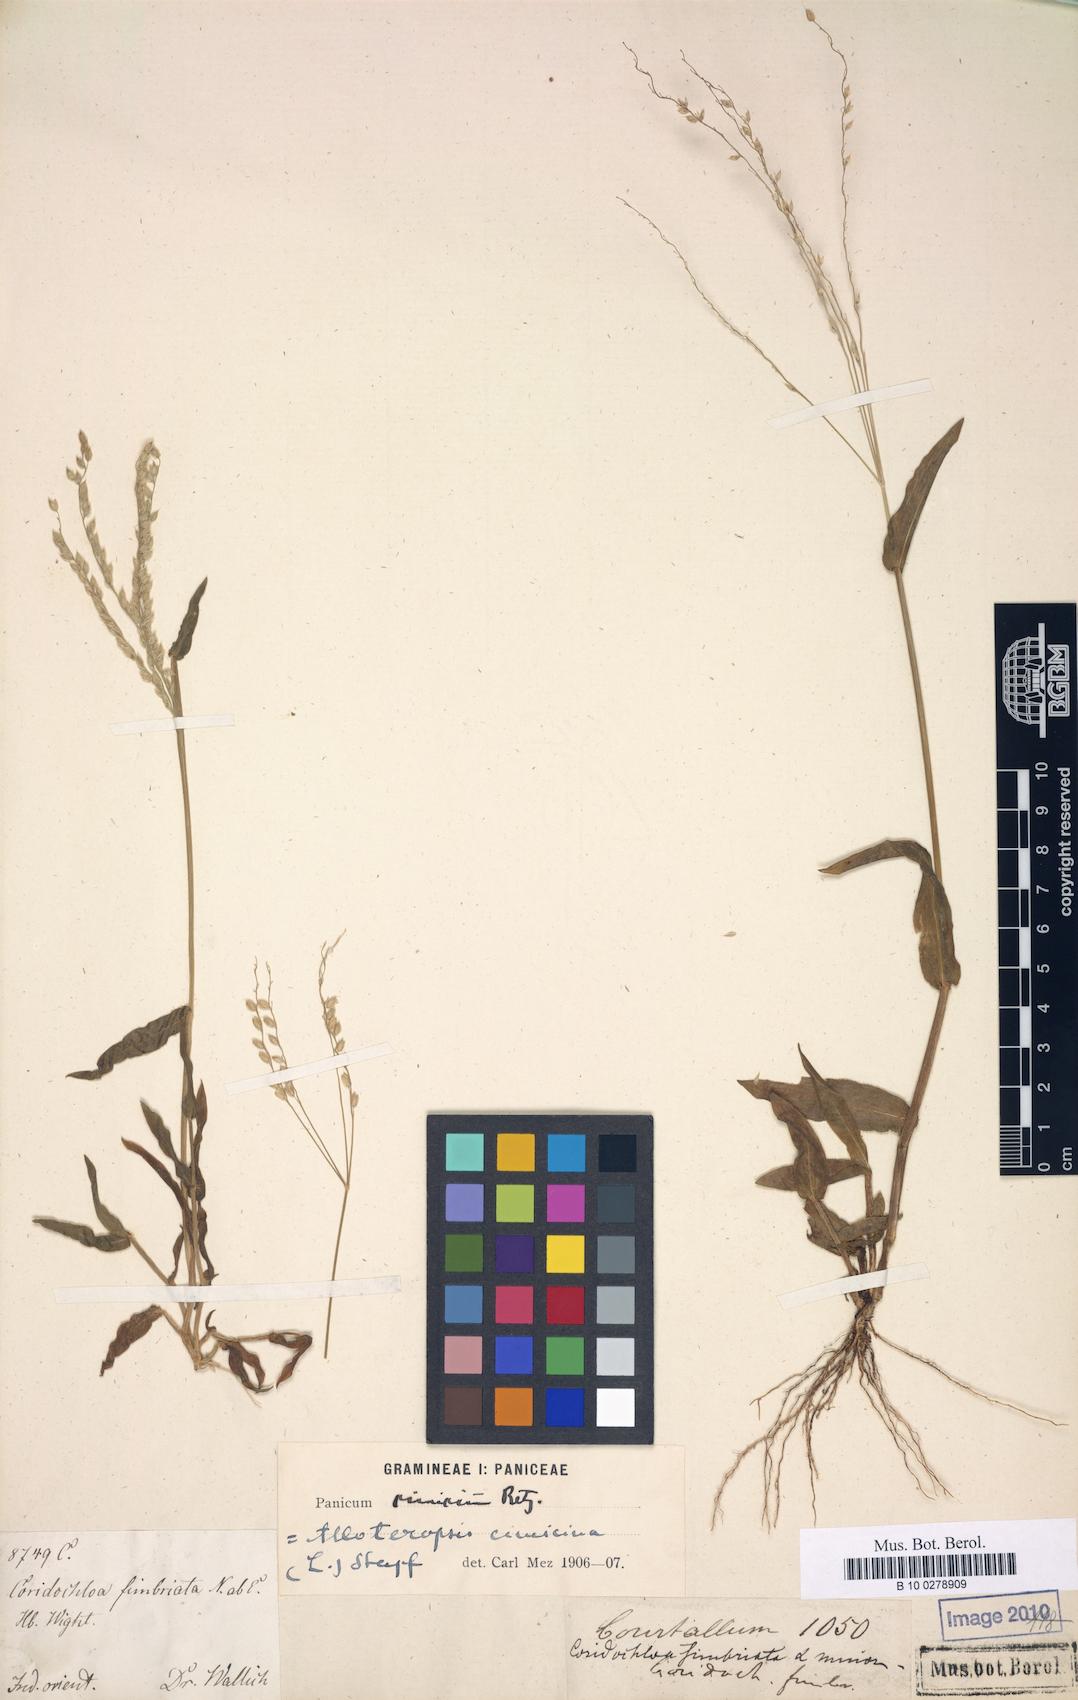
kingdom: Plantae
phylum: Tracheophyta
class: Liliopsida
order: Poales
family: Poaceae
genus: Alloteropsis
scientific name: Alloteropsis Coridochloa fimbriata
